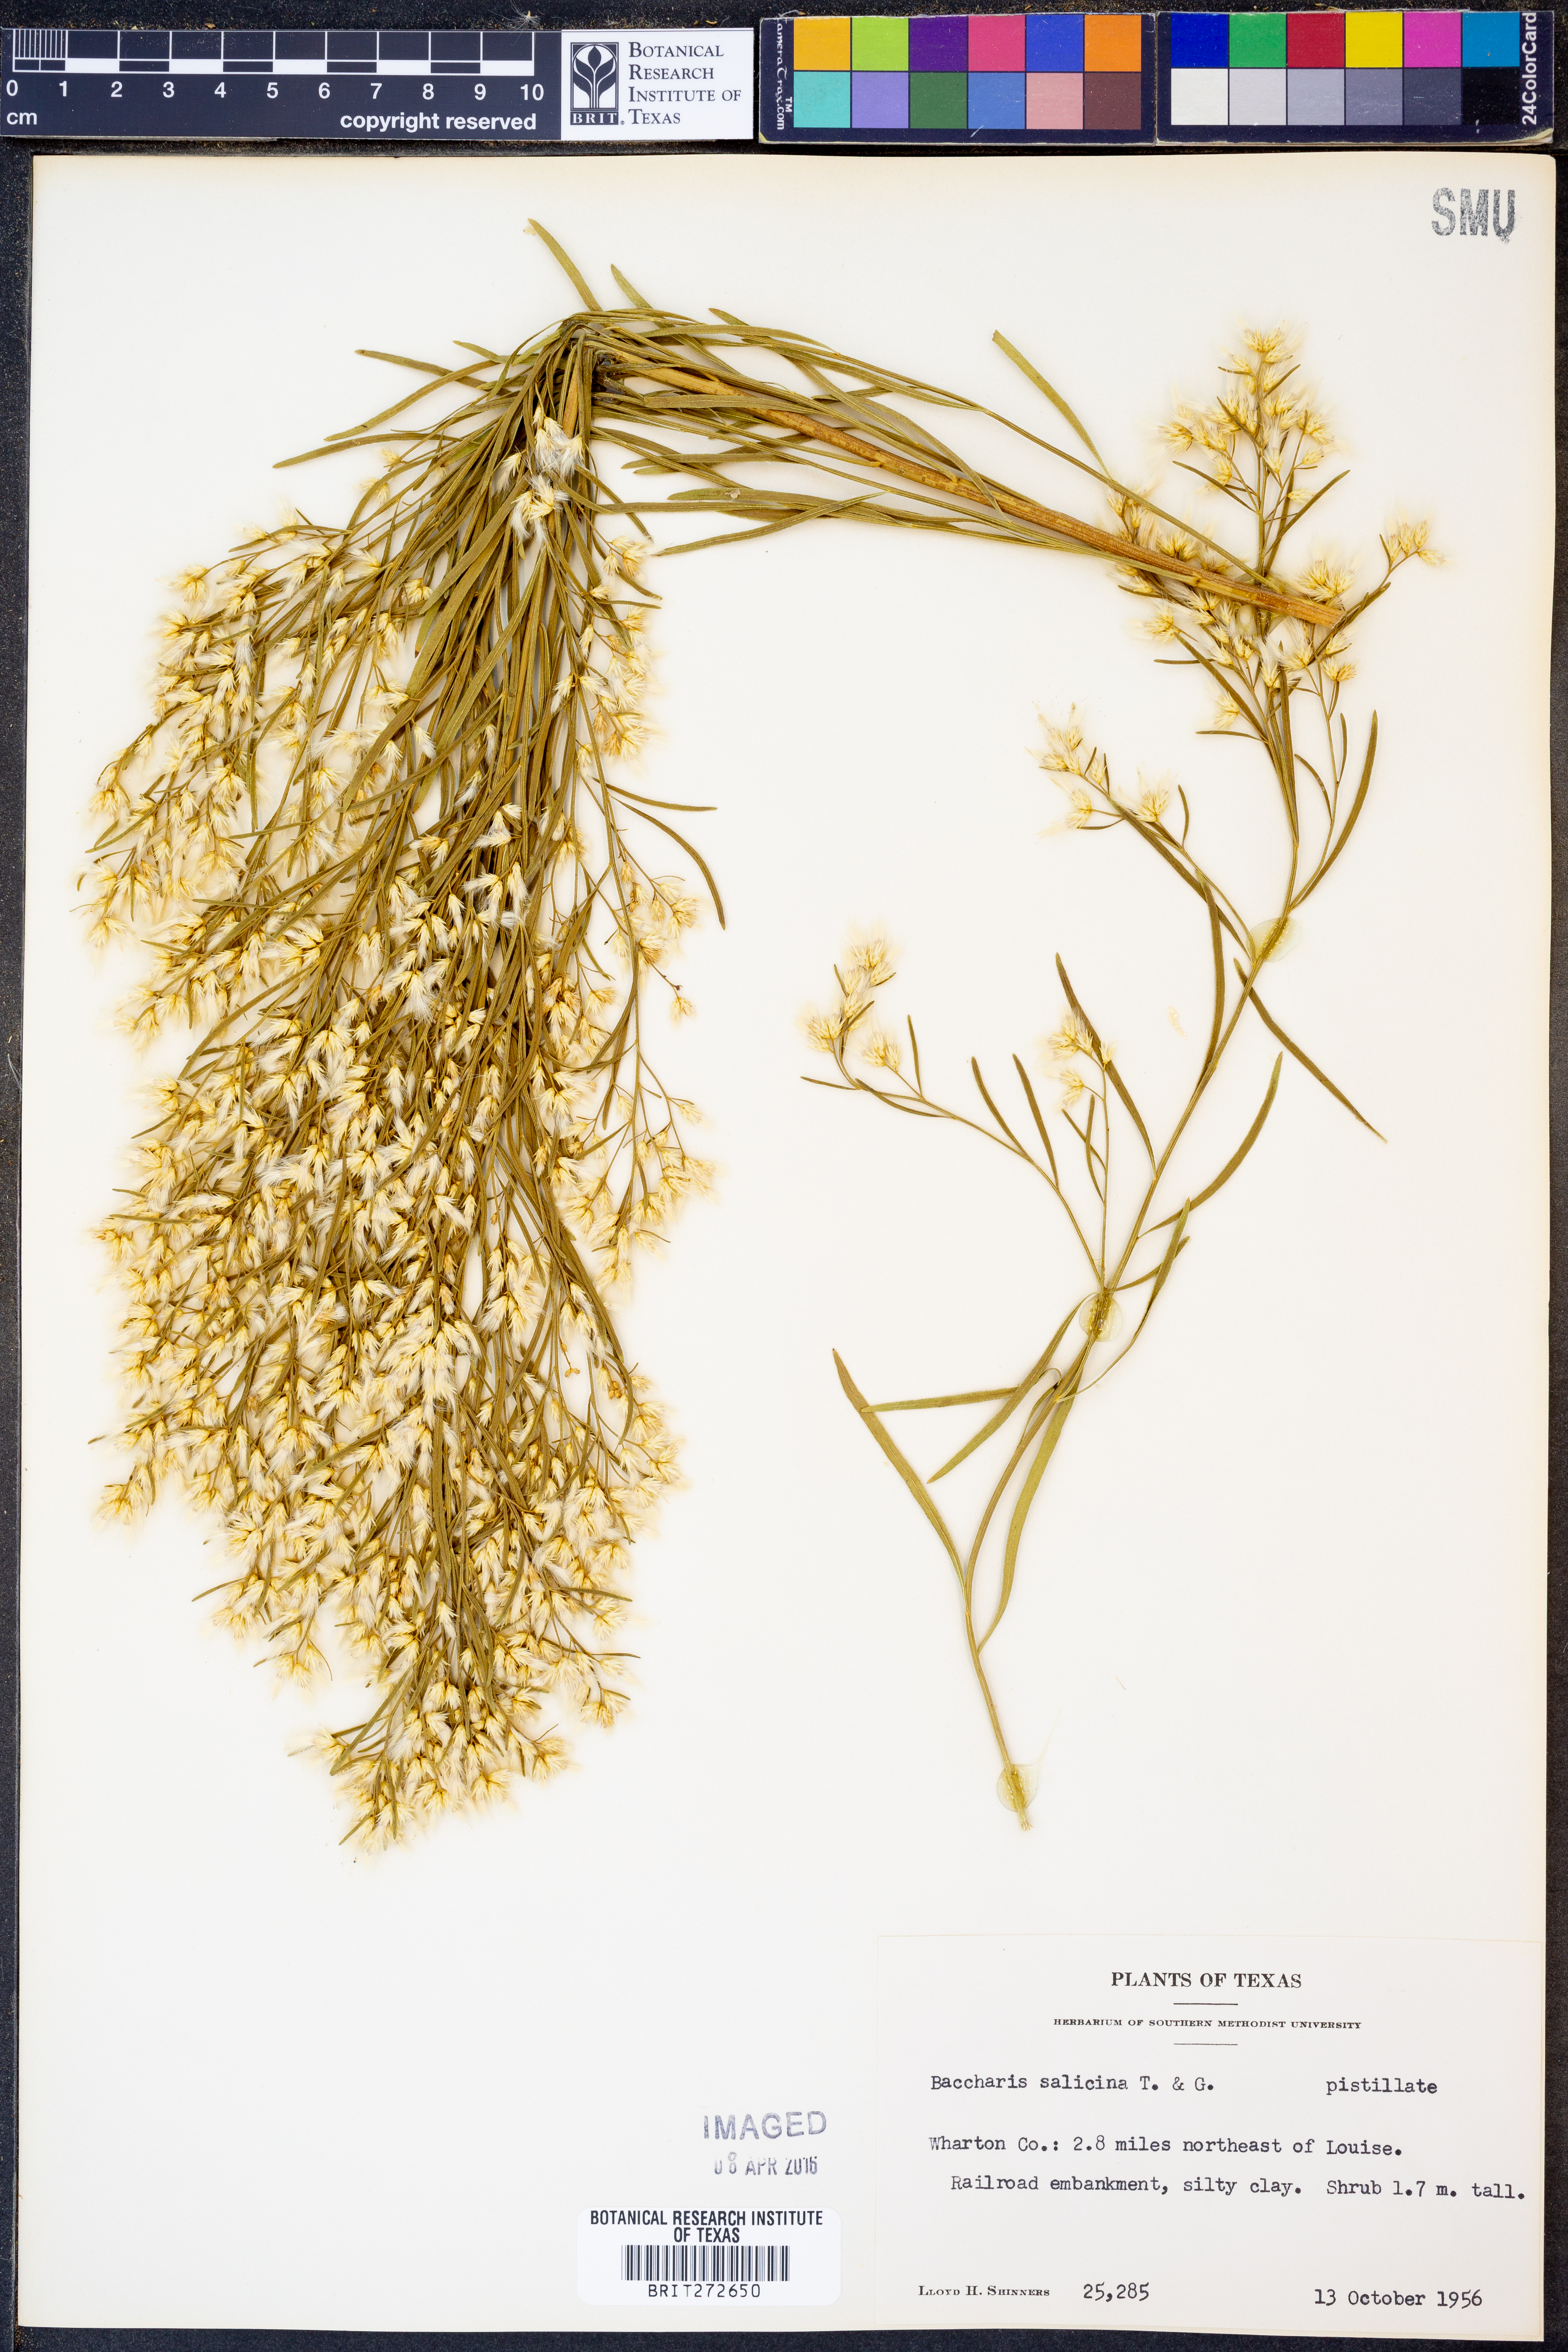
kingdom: Plantae
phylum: Tracheophyta
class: Magnoliopsida
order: Asterales
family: Asteraceae
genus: Baccharis
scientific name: Baccharis salicina
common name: Willow baccharis
